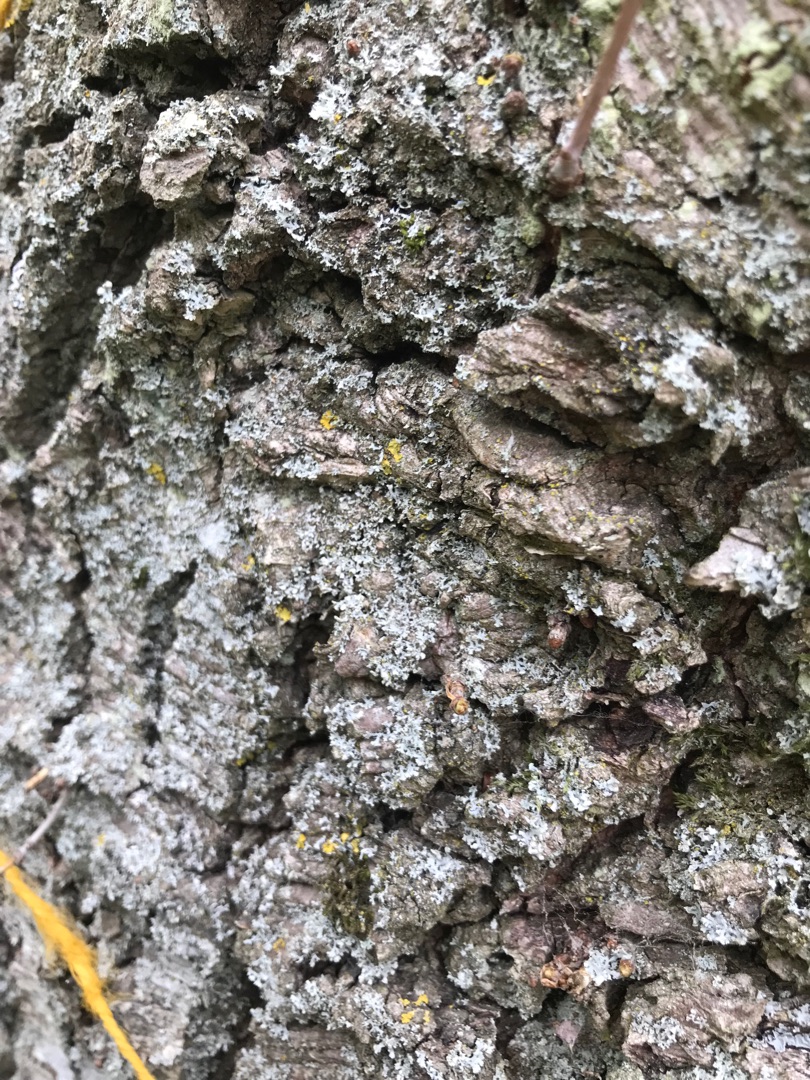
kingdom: Fungi
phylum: Ascomycota
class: Lecanoromycetes
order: Caliciales
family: Physciaceae
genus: Physcia
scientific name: Physcia adscendens
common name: Hætte-rosetlav
